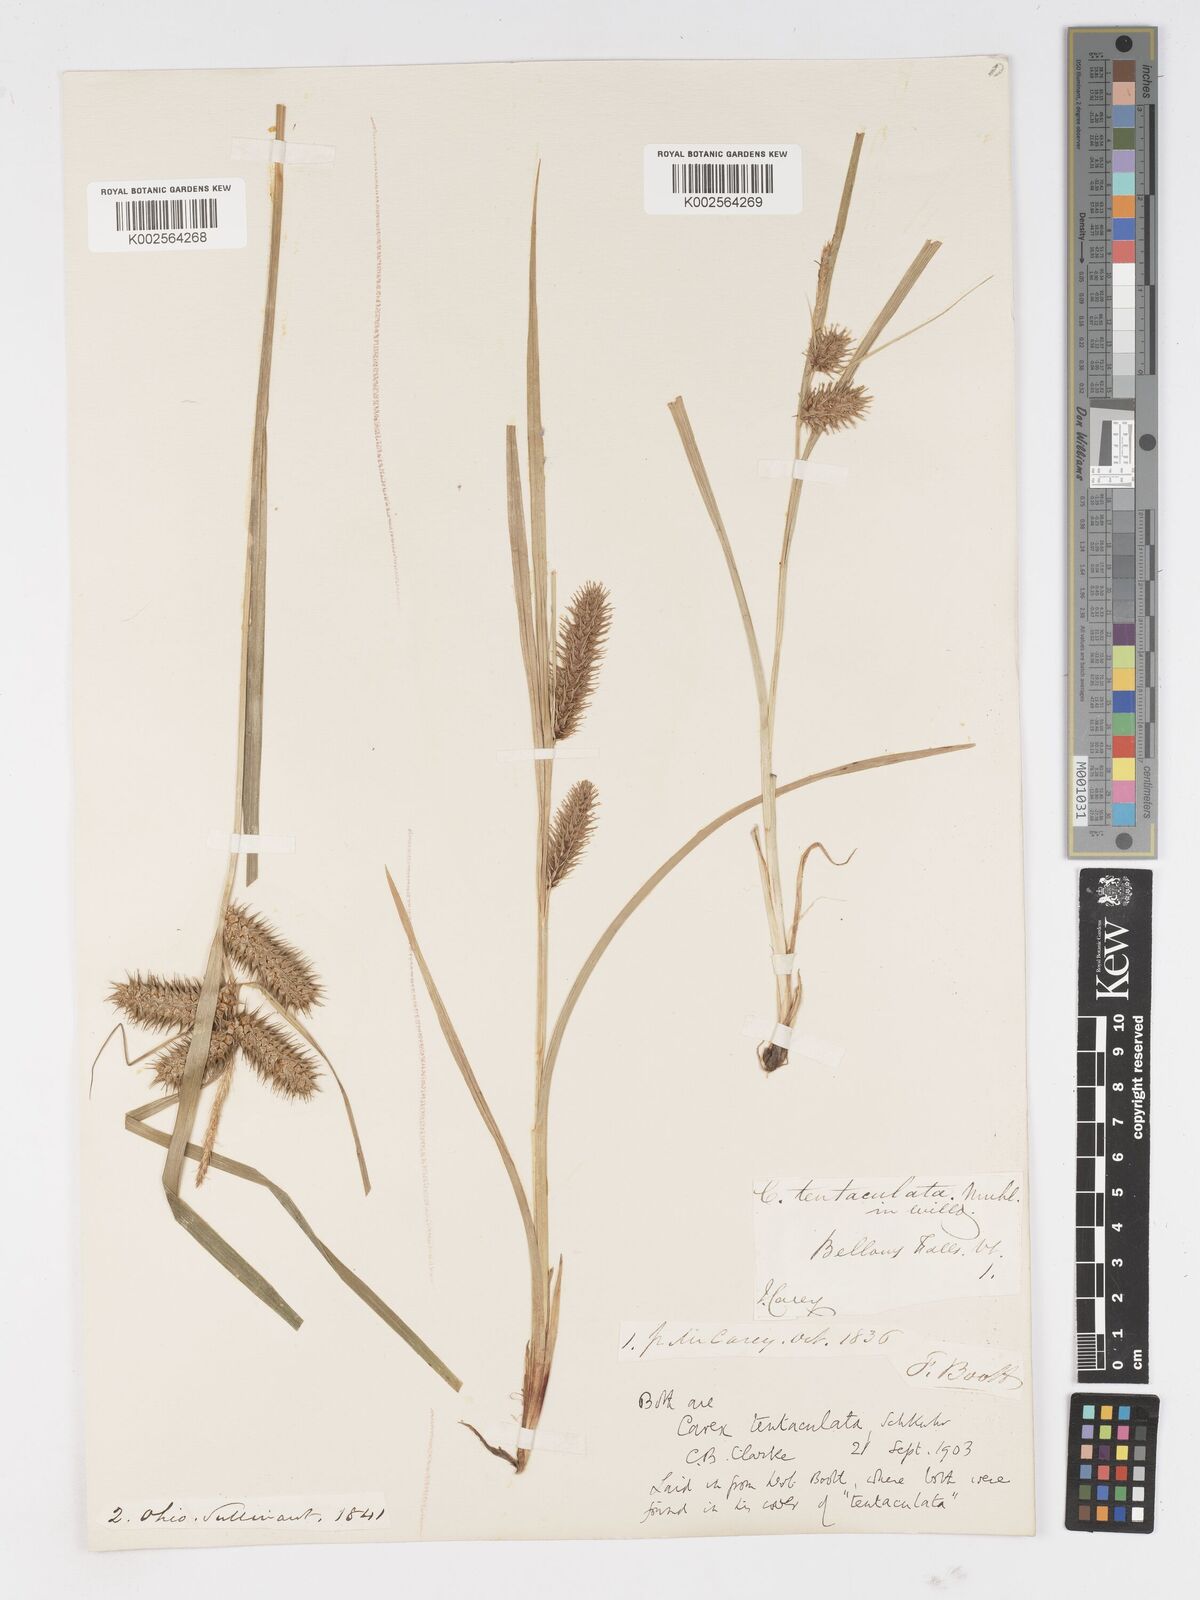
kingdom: Plantae
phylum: Tracheophyta
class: Liliopsida
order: Poales
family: Cyperaceae
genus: Carex
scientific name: Carex lurida
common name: Sallow sedge
